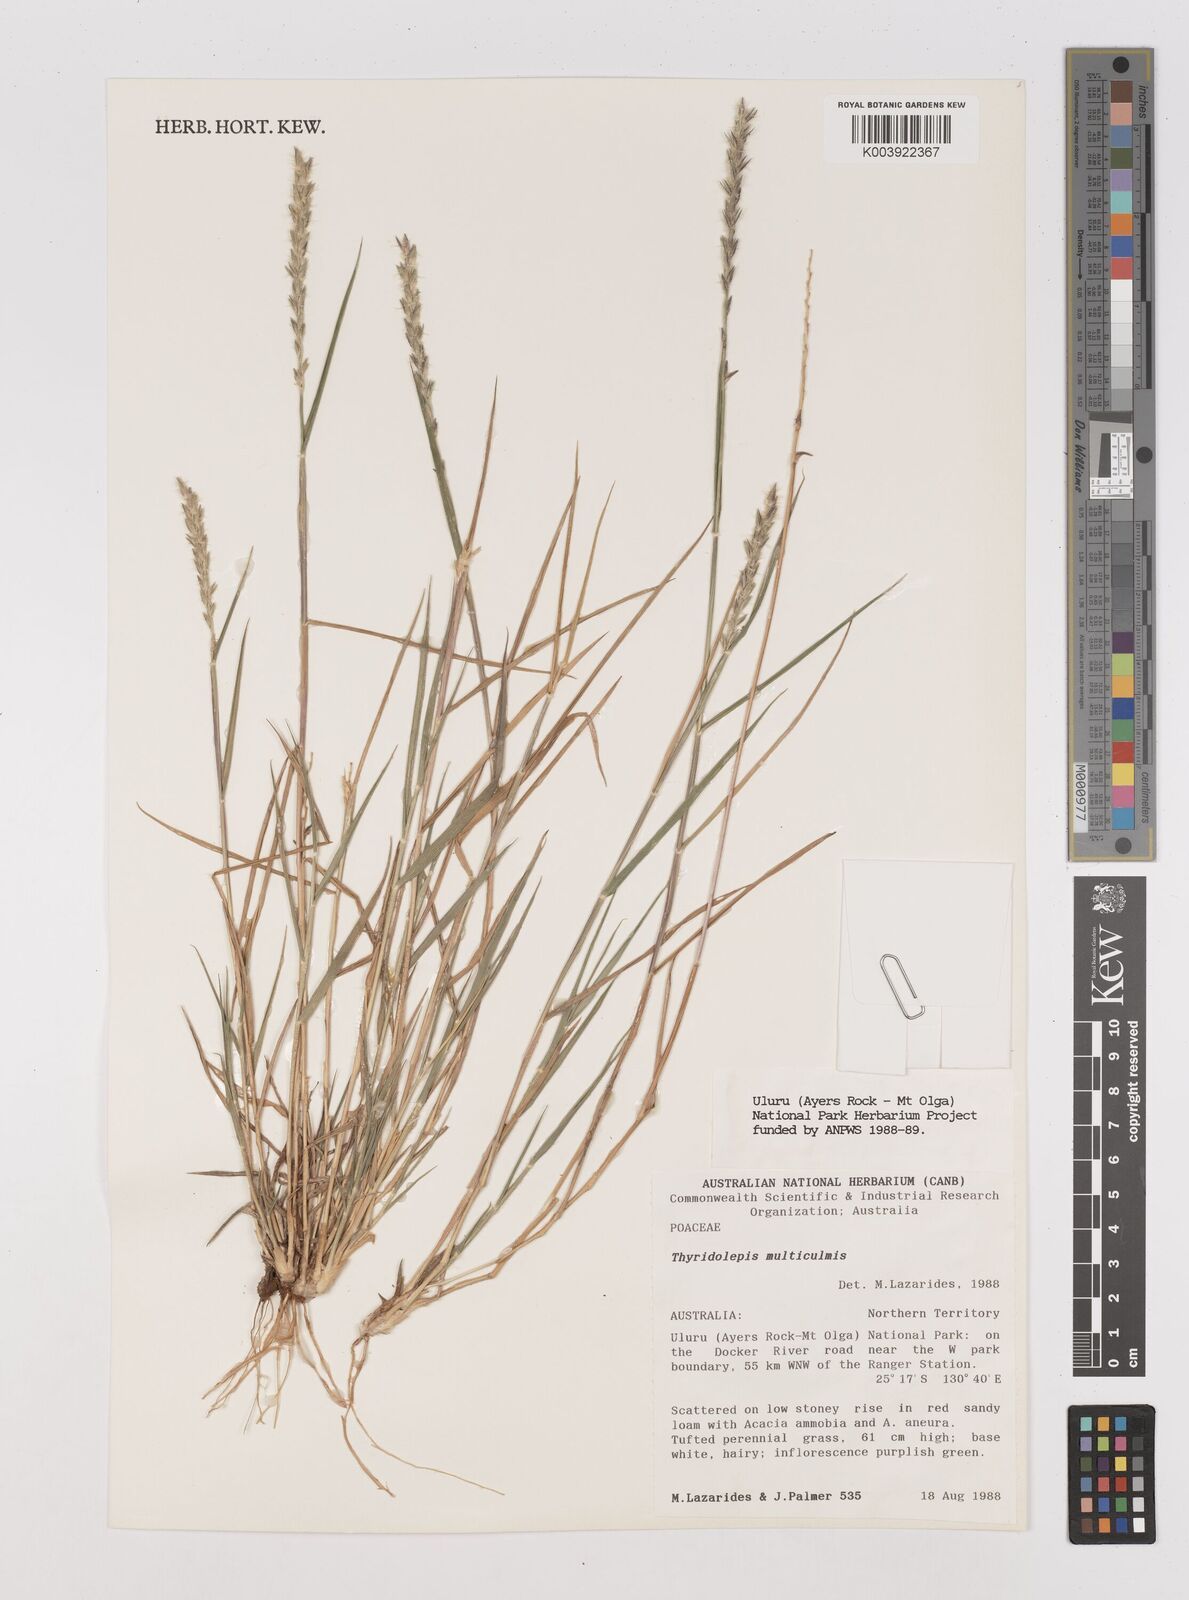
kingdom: Plantae
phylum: Tracheophyta
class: Liliopsida
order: Poales
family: Poaceae
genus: Thyridolepis
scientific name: Thyridolepis mitchelliana
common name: Rock tassel grass
